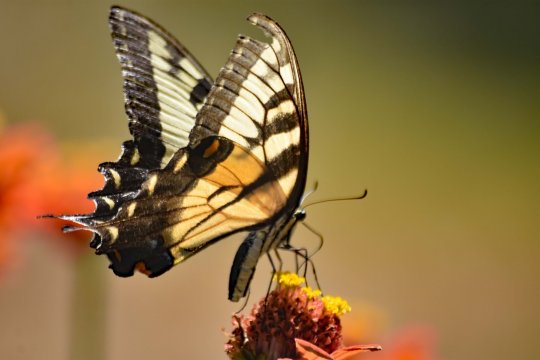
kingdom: Animalia
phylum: Arthropoda
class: Insecta
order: Lepidoptera
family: Papilionidae
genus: Pterourus
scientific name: Pterourus glaucus
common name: Eastern Tiger Swallowtail
